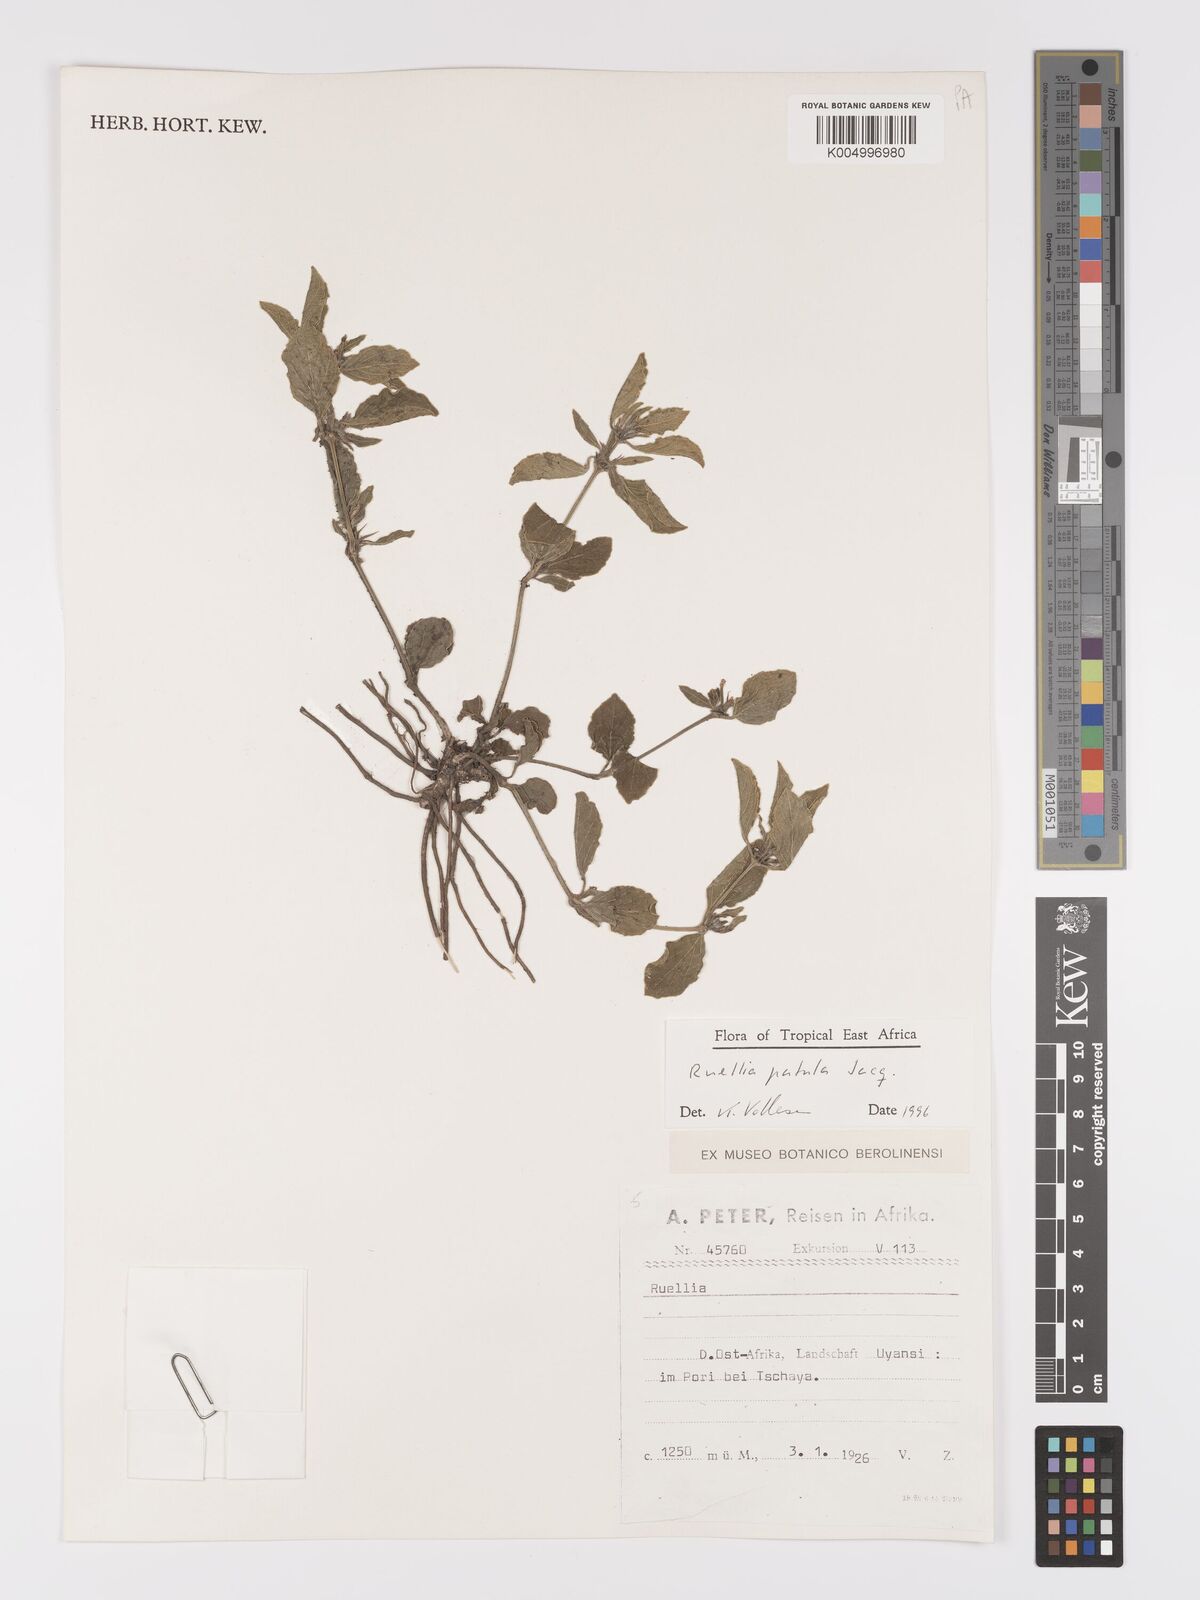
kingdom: Plantae
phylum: Tracheophyta
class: Magnoliopsida
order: Lamiales
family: Acanthaceae
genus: Ruellia
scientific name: Ruellia patula
